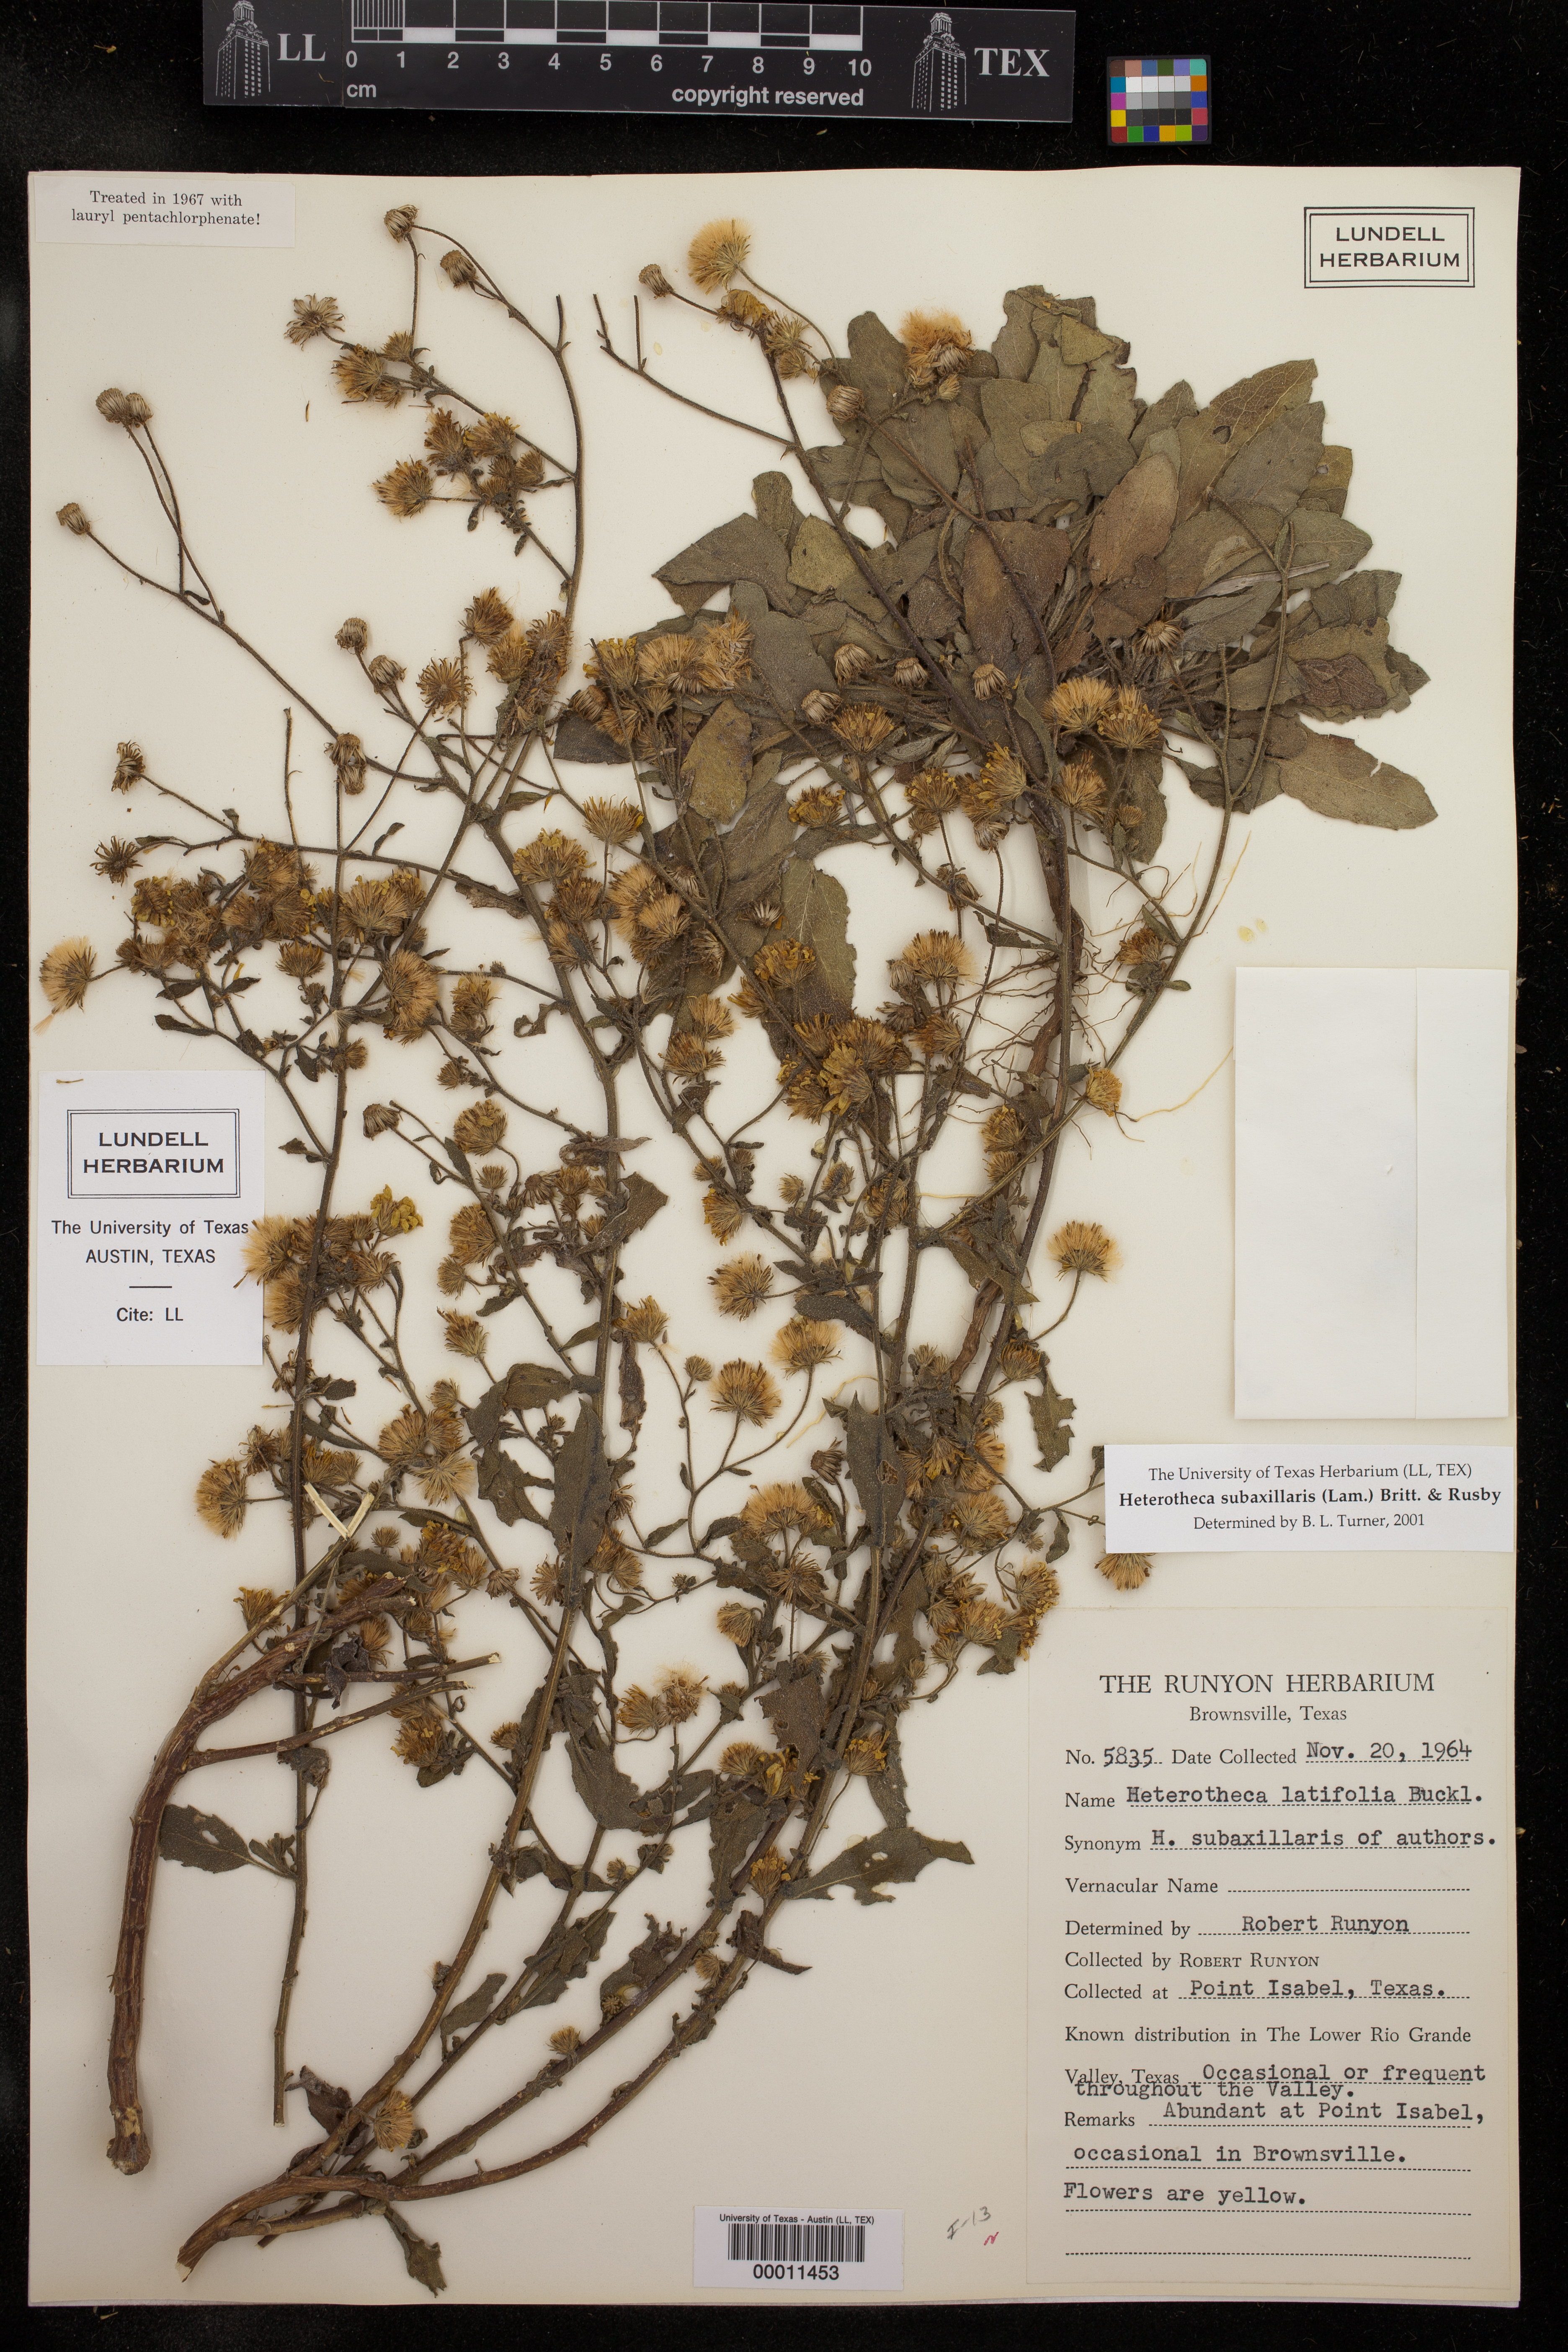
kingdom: Plantae
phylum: Tracheophyta
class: Magnoliopsida
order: Asterales
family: Asteraceae
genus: Heterotheca
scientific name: Heterotheca subaxillaris
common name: Camphorweed
